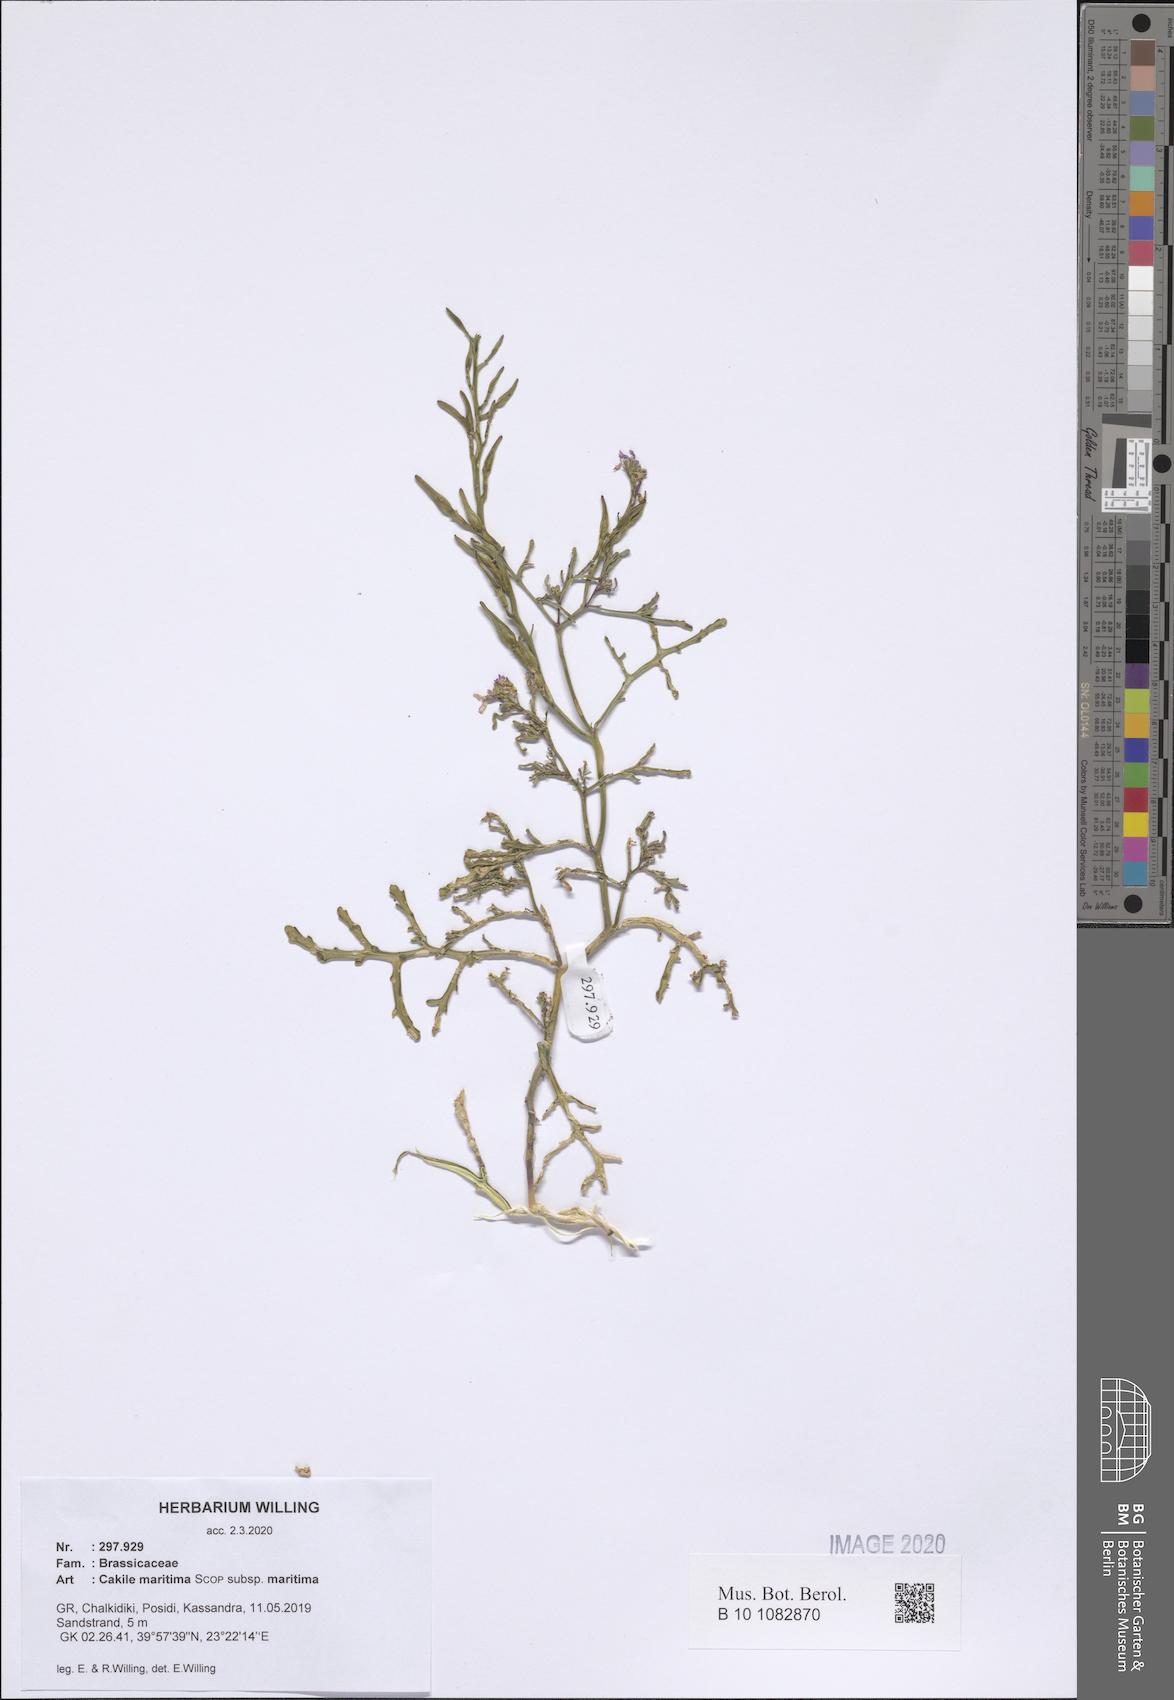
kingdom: Plantae
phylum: Tracheophyta
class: Magnoliopsida
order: Brassicales
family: Brassicaceae
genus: Cakile
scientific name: Cakile maritima
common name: Sea rocket
